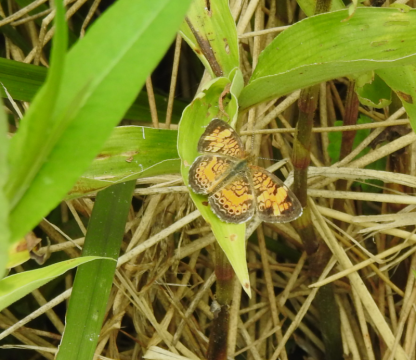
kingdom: Animalia
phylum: Arthropoda
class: Insecta
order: Lepidoptera
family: Nymphalidae
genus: Phyciodes
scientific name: Phyciodes tharos
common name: Pearl Crescent
